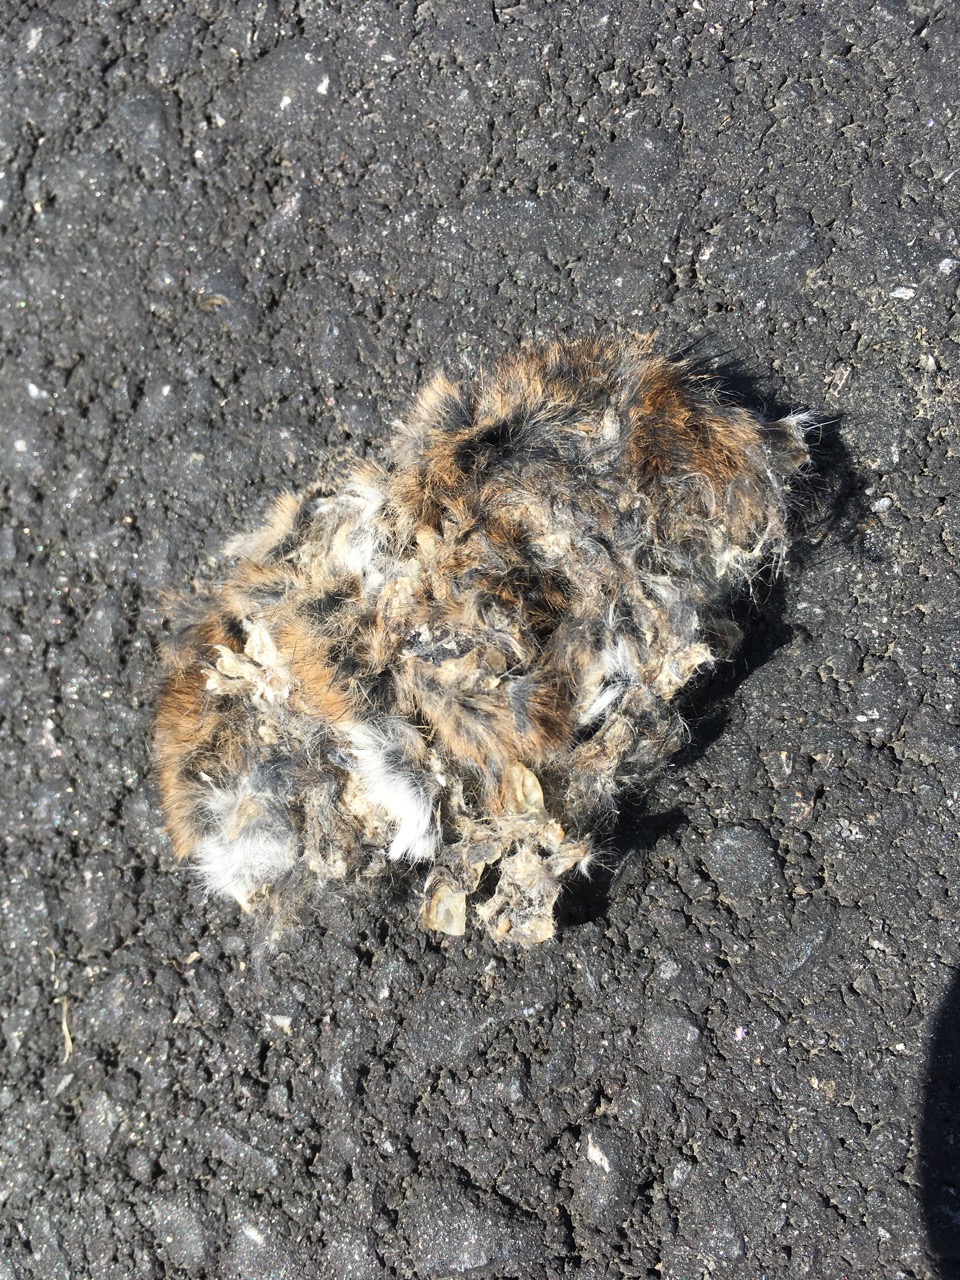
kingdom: Animalia
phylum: Chordata
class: Mammalia
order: Rodentia
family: Cricetidae
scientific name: Cricetidae
